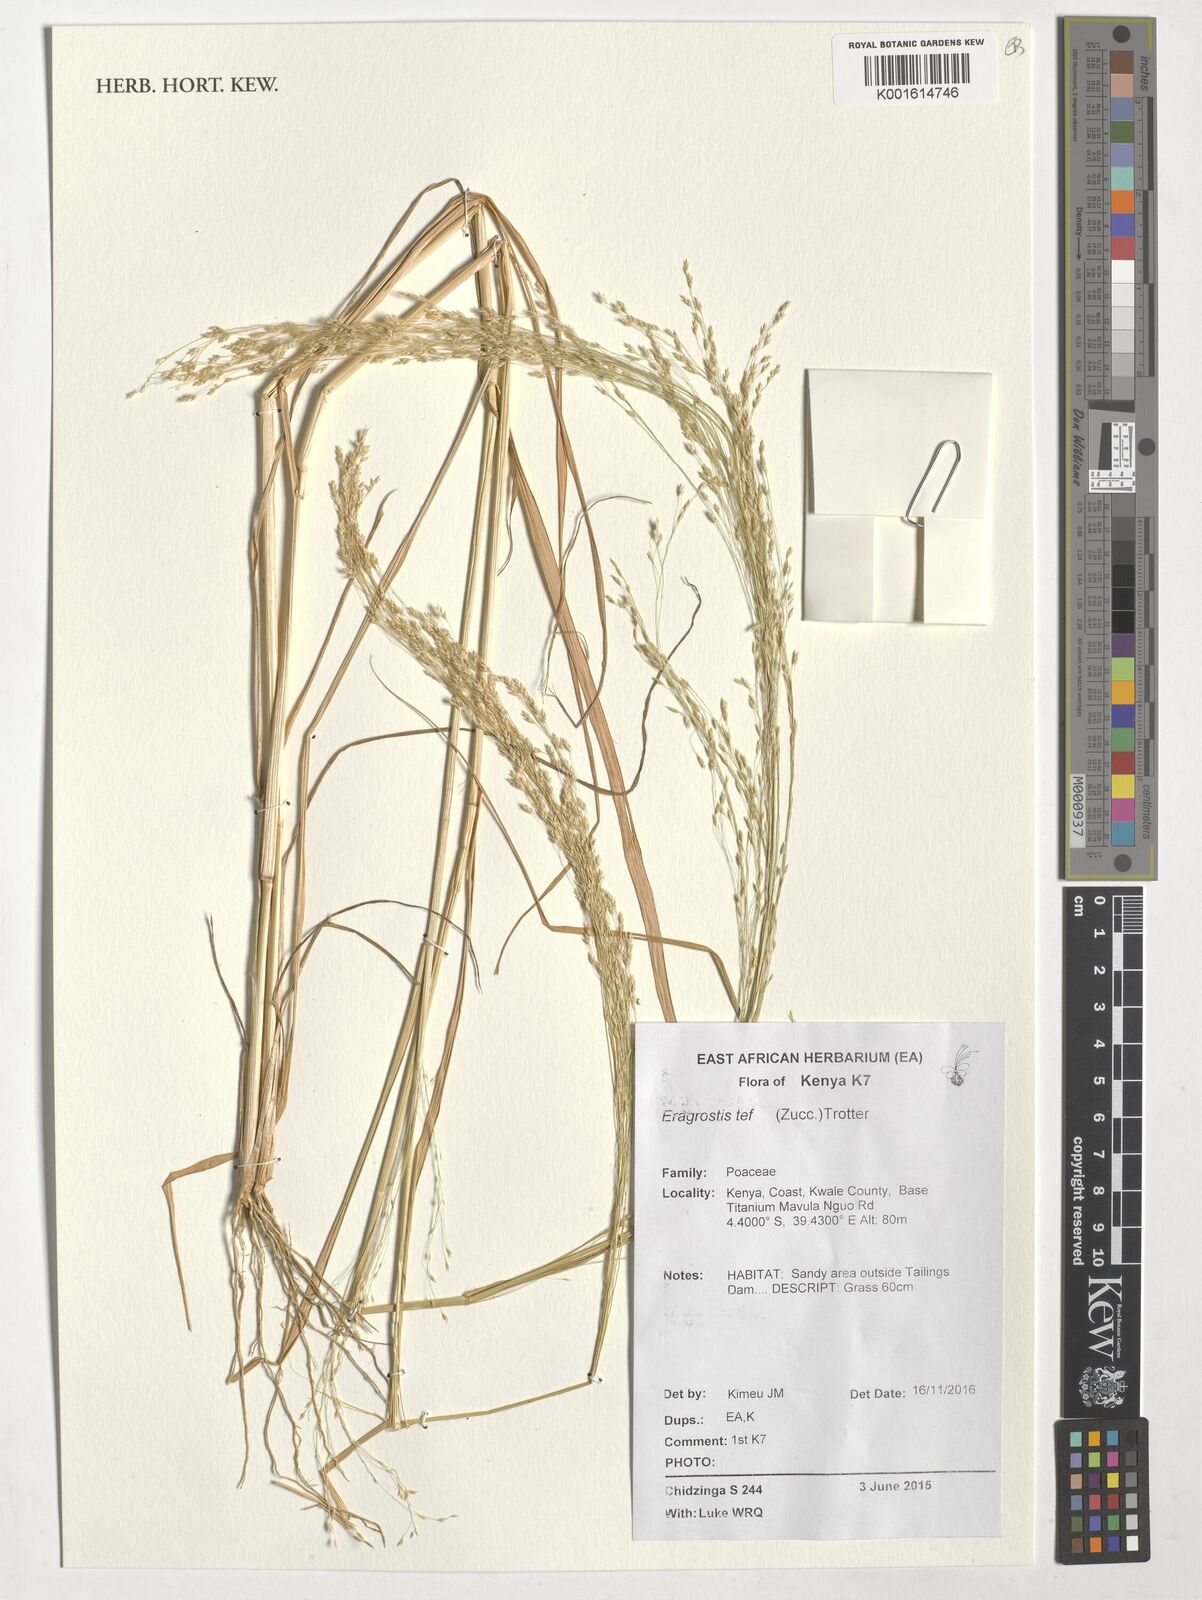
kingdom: Plantae
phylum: Tracheophyta
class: Liliopsida
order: Poales
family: Poaceae
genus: Eragrostis
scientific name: Eragrostis tef
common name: Teff
